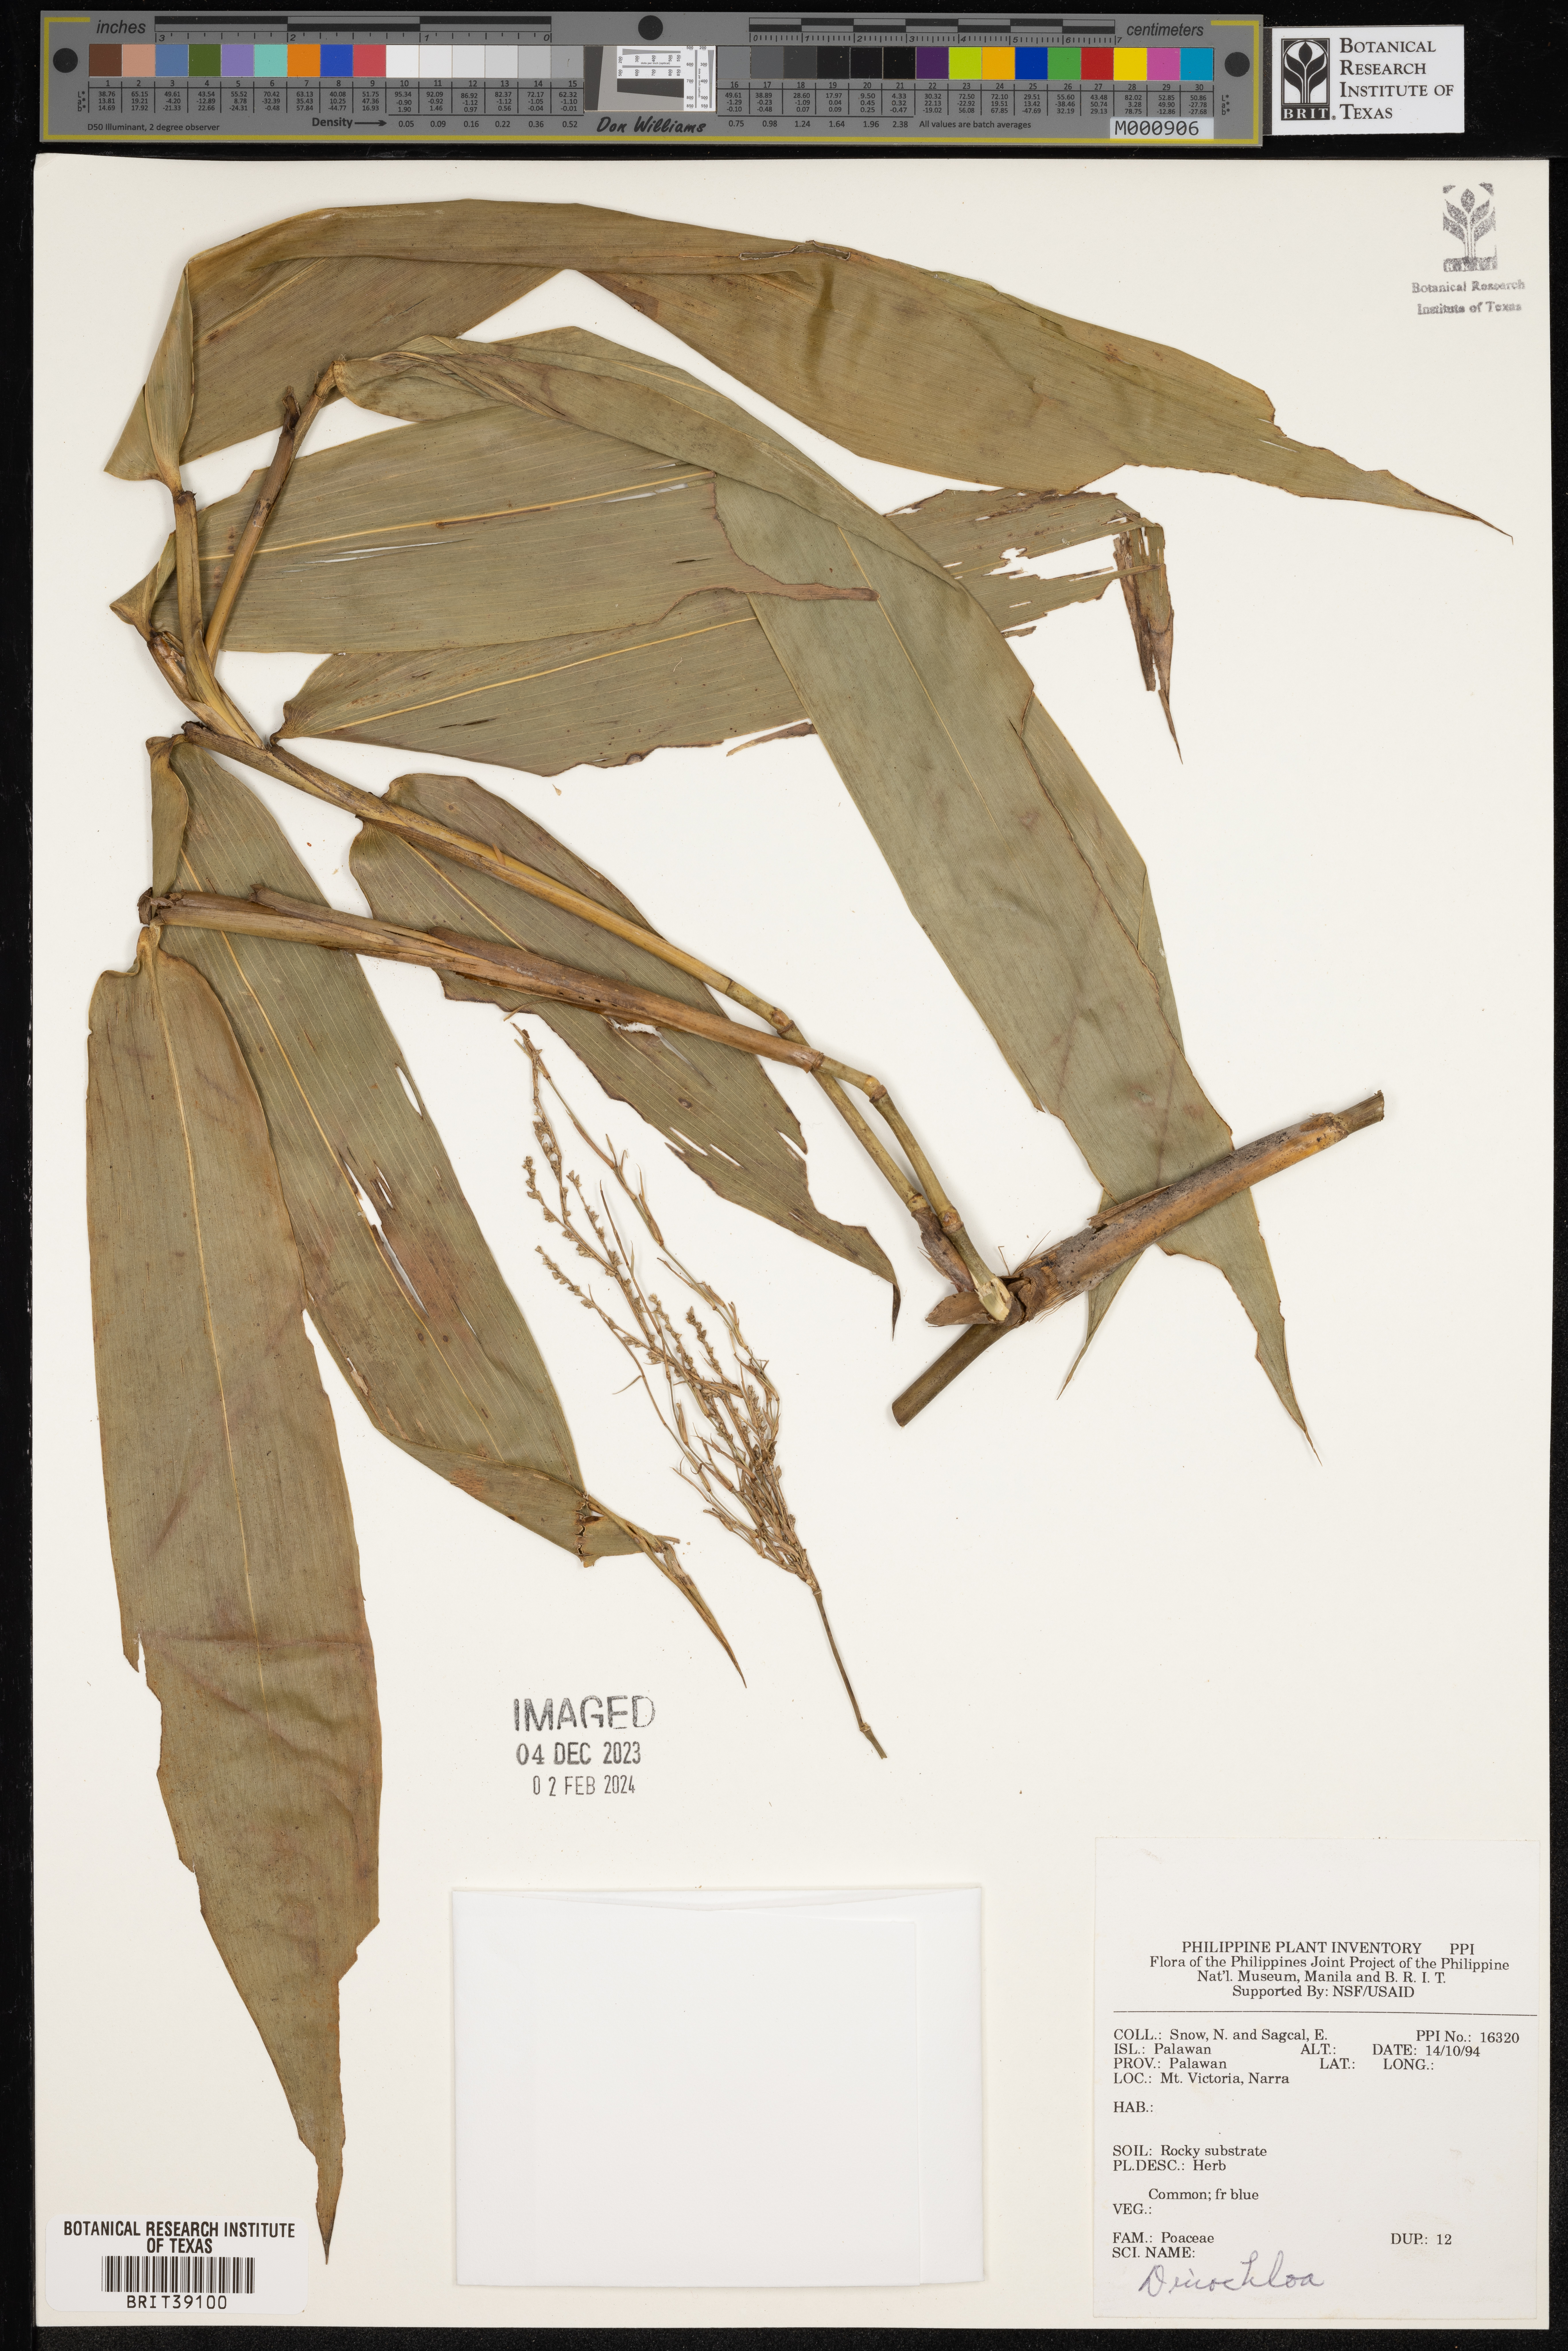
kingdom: Plantae
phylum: Tracheophyta
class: Liliopsida
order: Poales
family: Poaceae
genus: Dinochloa
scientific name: Dinochloa
